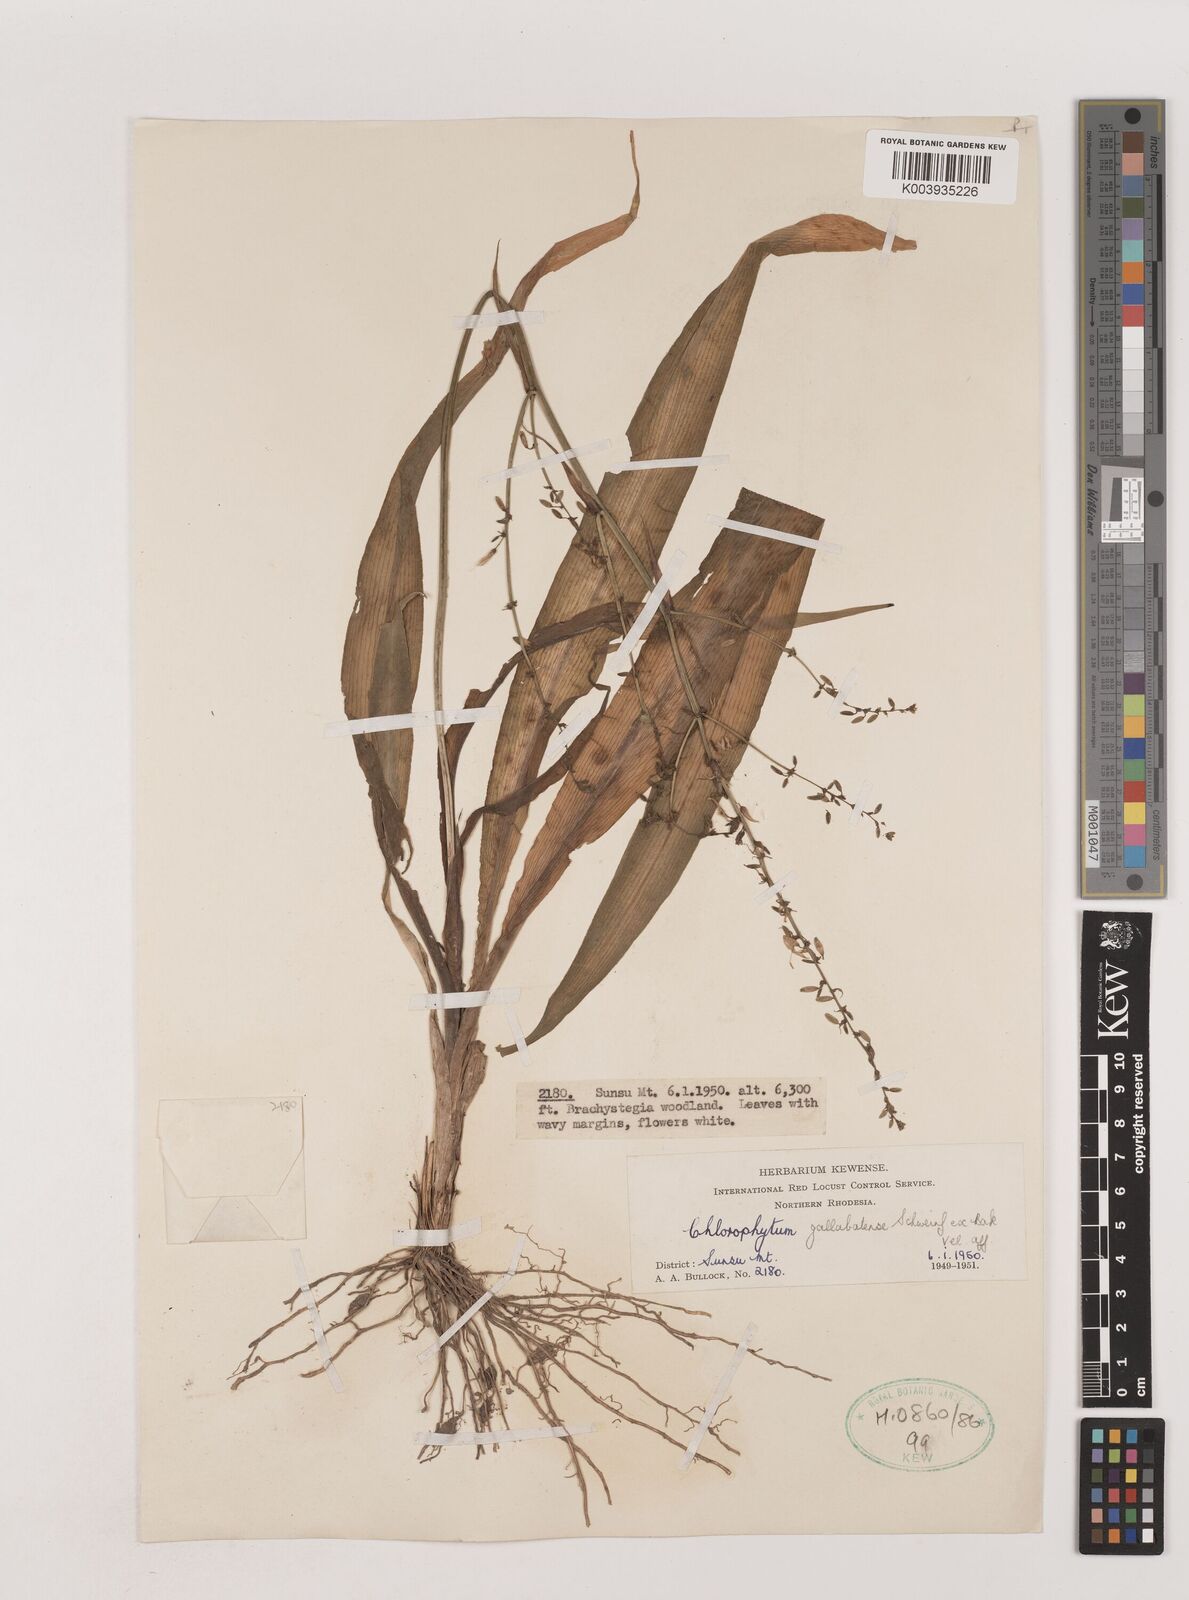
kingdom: Plantae
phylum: Tracheophyta
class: Liliopsida
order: Asparagales
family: Asparagaceae
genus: Chlorophytum
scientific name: Chlorophytum gallabatense
